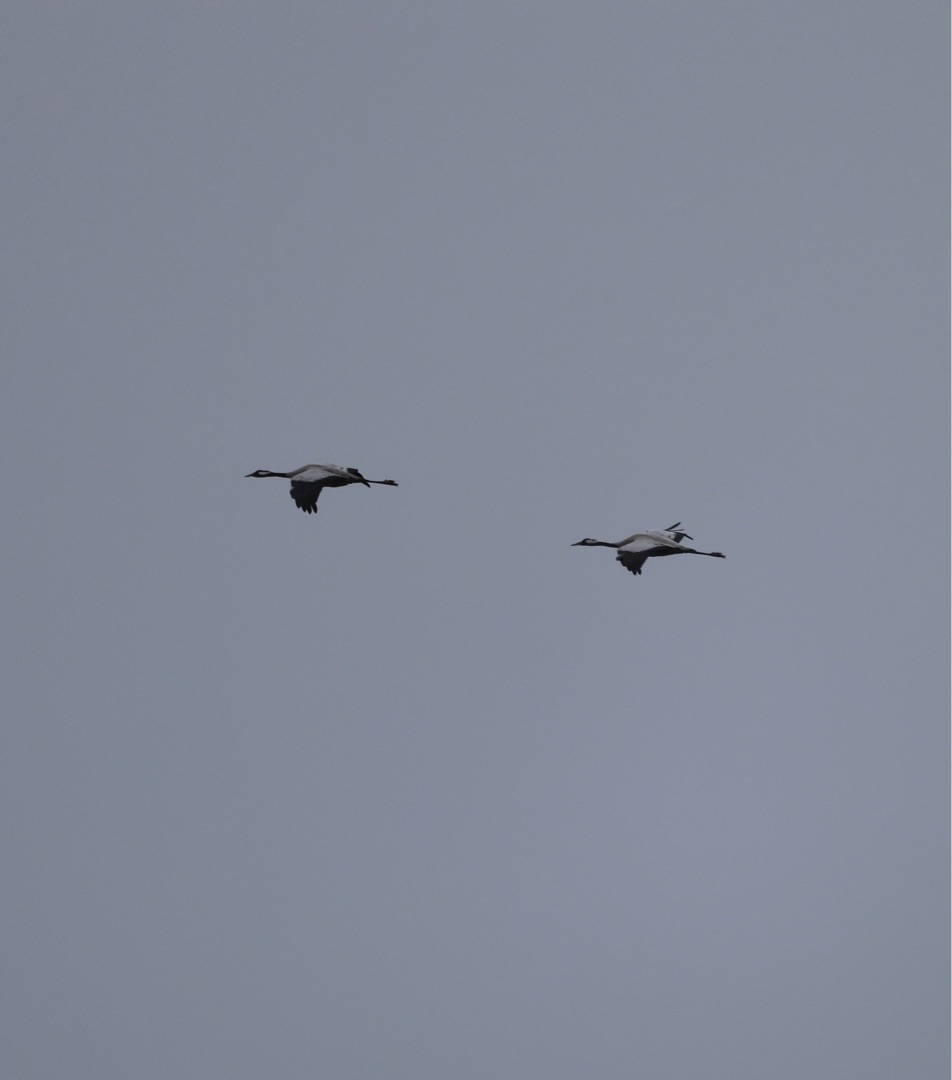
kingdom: Animalia
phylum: Chordata
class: Aves
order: Gruiformes
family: Gruidae
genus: Grus
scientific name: Grus grus
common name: Trane
